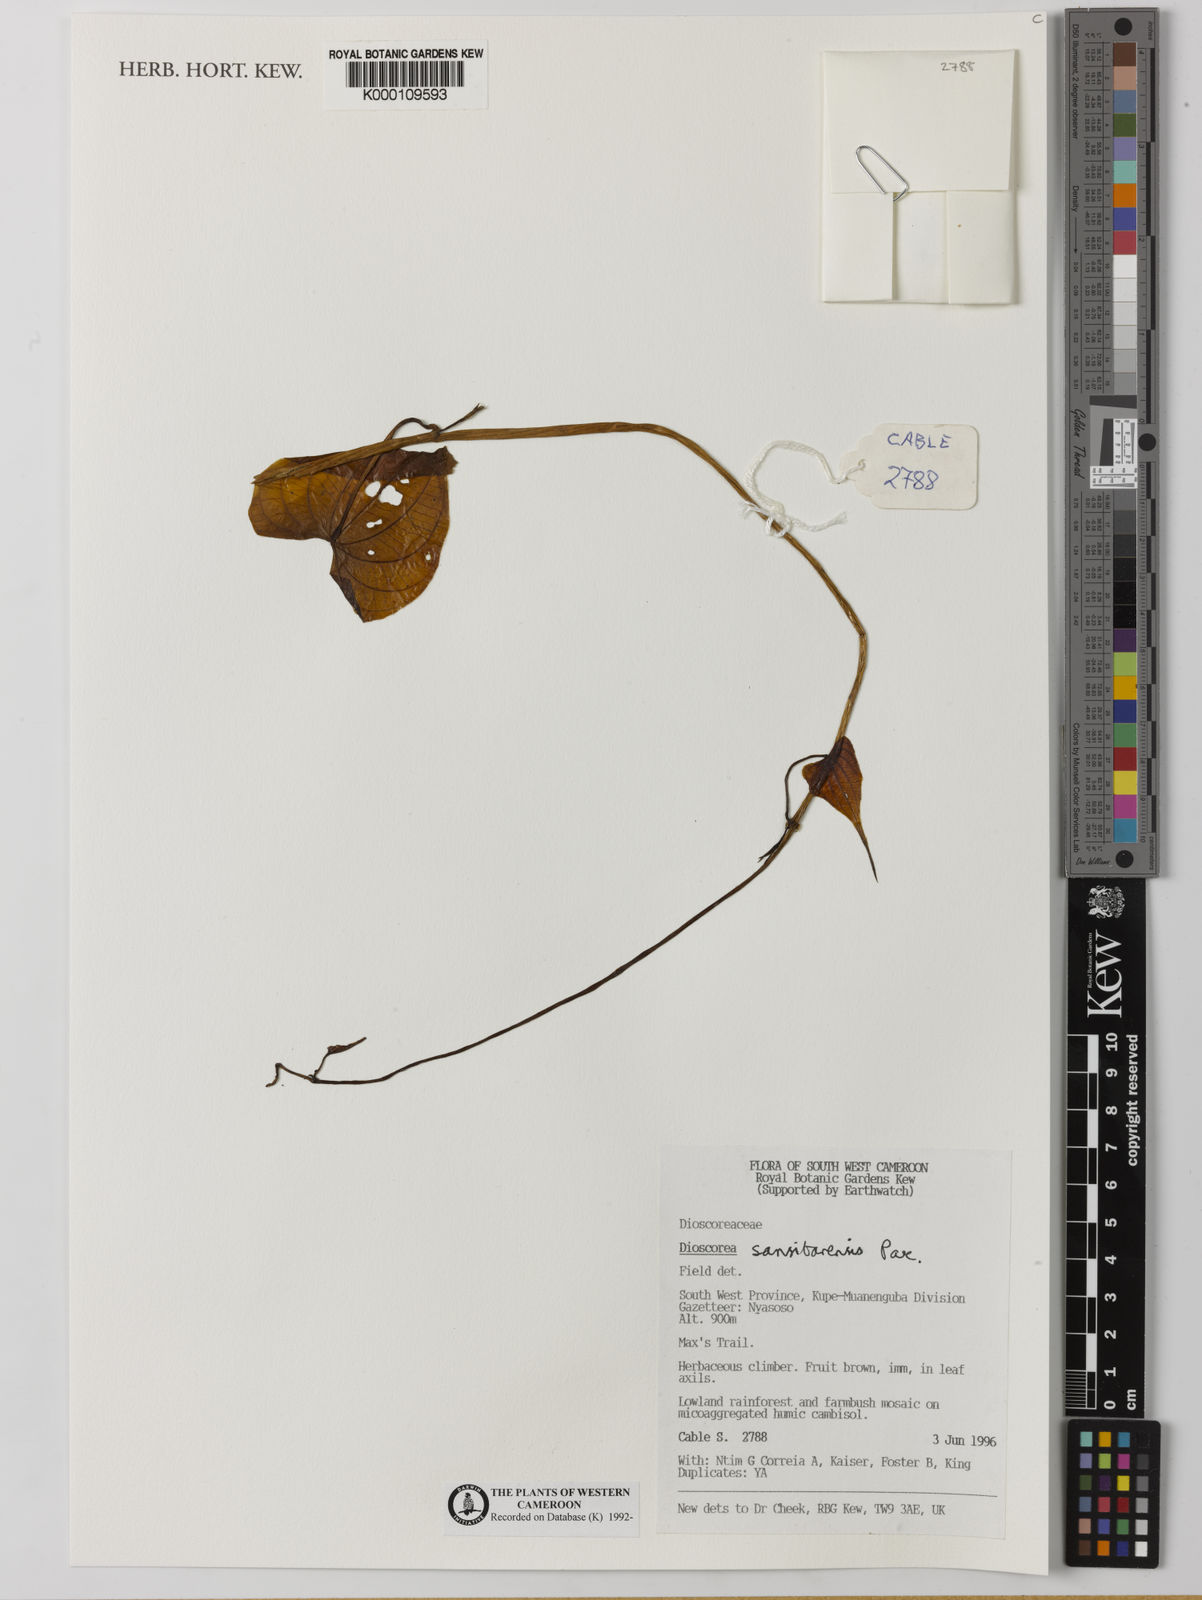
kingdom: Plantae
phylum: Tracheophyta
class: Liliopsida
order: Dioscoreales
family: Dioscoreaceae
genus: Dioscorea
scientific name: Dioscorea sansibarensis
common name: Zanzibar yam
